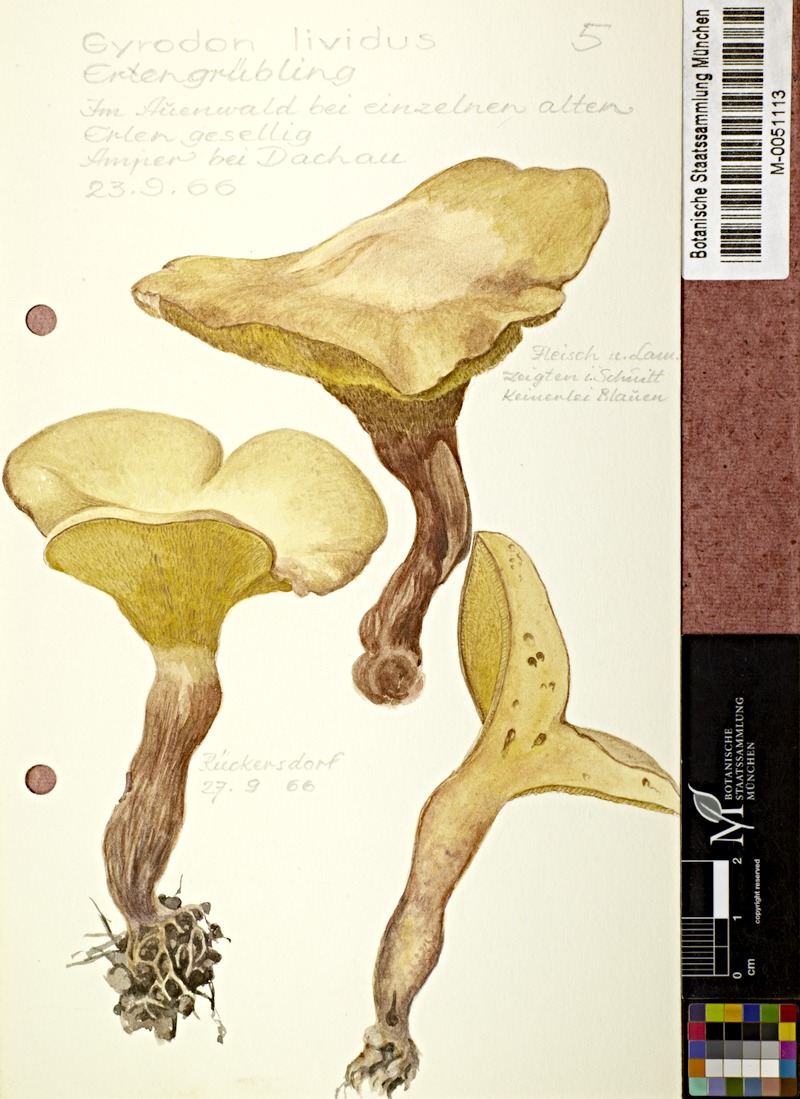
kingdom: Fungi
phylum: Basidiomycota
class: Agaricomycetes
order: Boletales
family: Paxillaceae
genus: Gyrodon
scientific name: Gyrodon lividus
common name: Alder bolete
